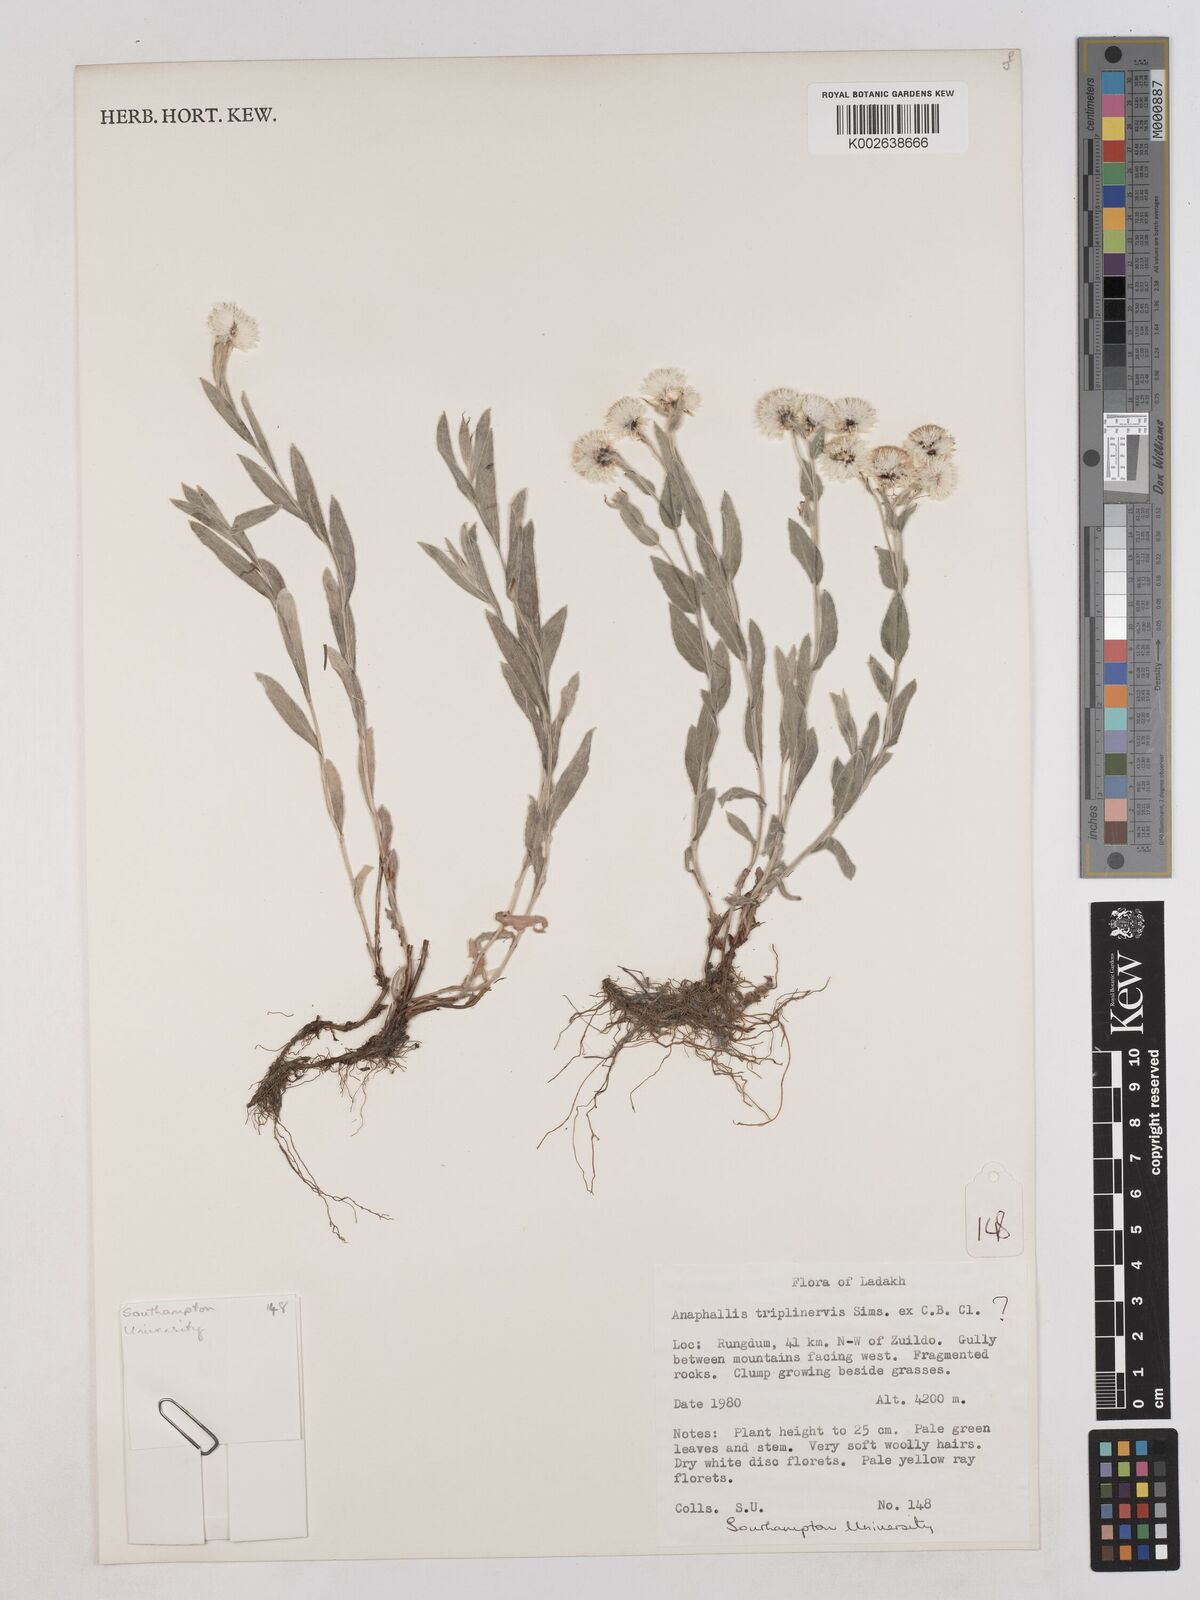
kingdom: Plantae
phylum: Tracheophyta
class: Magnoliopsida
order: Asterales
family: Asteraceae
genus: Anaphalioides
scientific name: Anaphalioides trinervis
